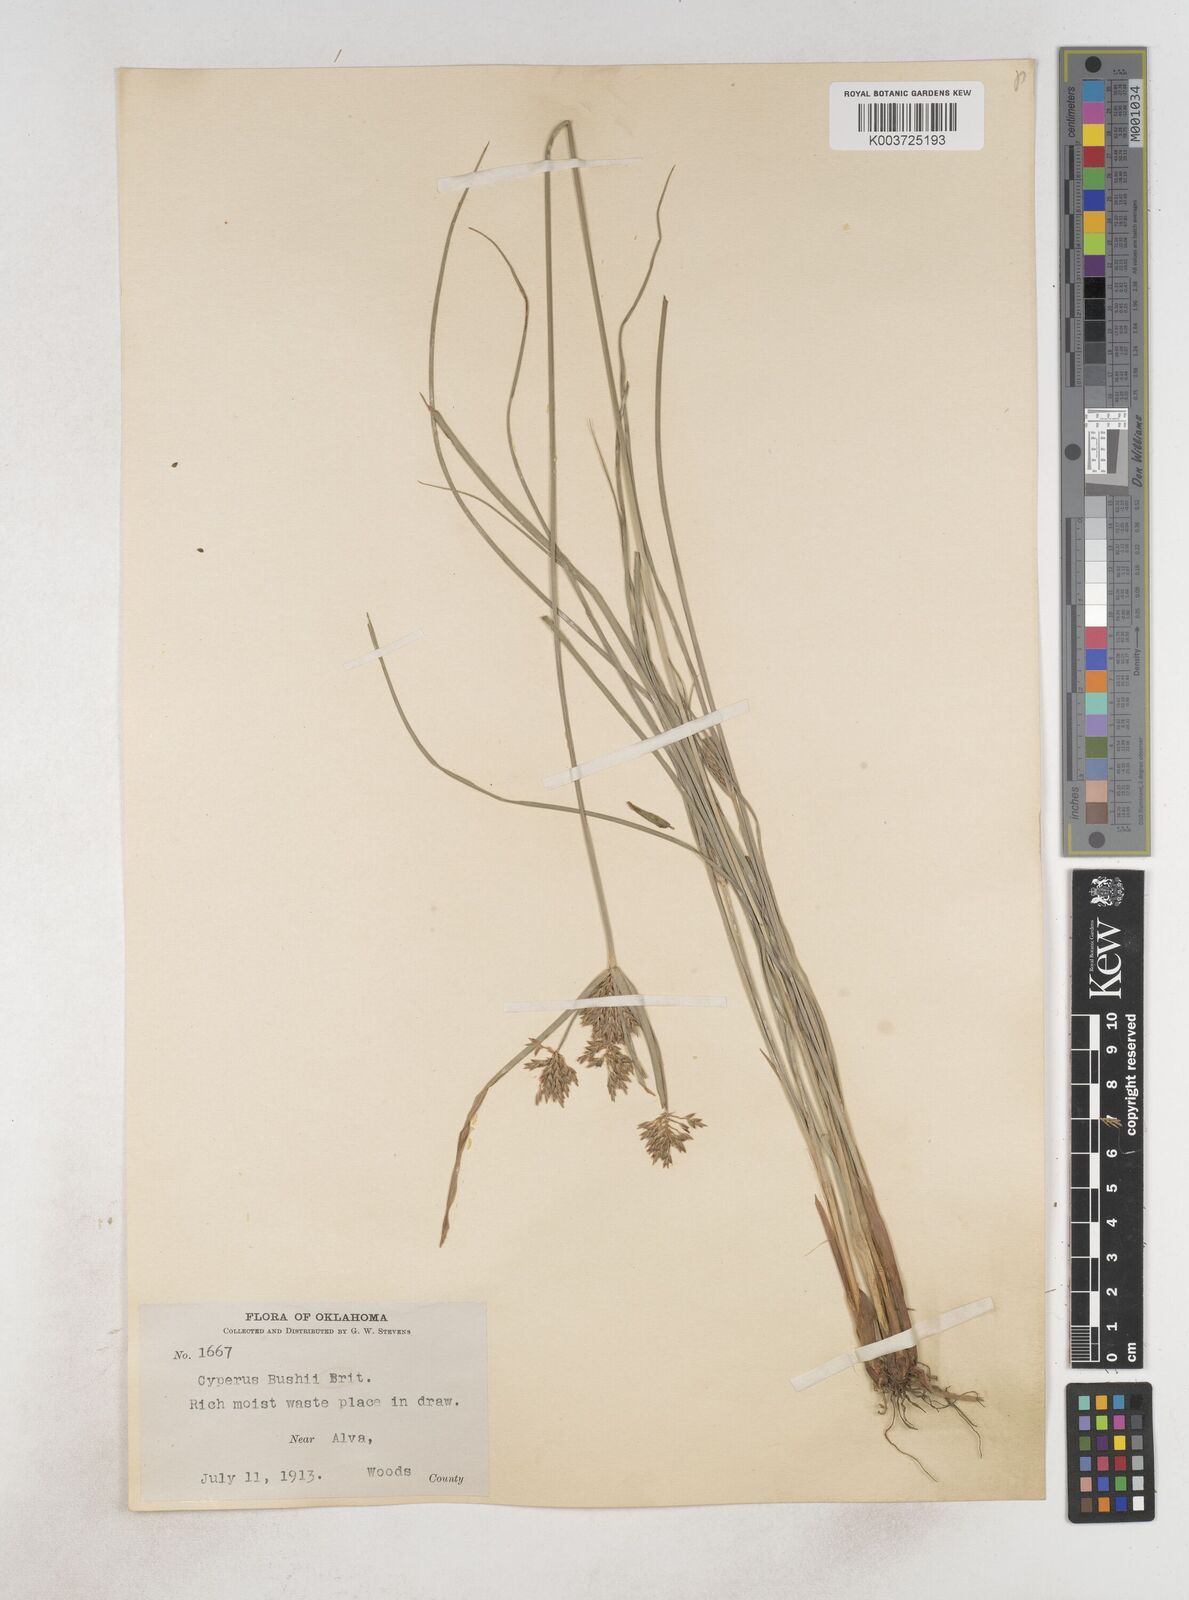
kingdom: Plantae
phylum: Tracheophyta
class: Liliopsida
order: Poales
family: Cyperaceae
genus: Cyperus
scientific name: Cyperus lupulinus
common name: Great plains flatsedge
